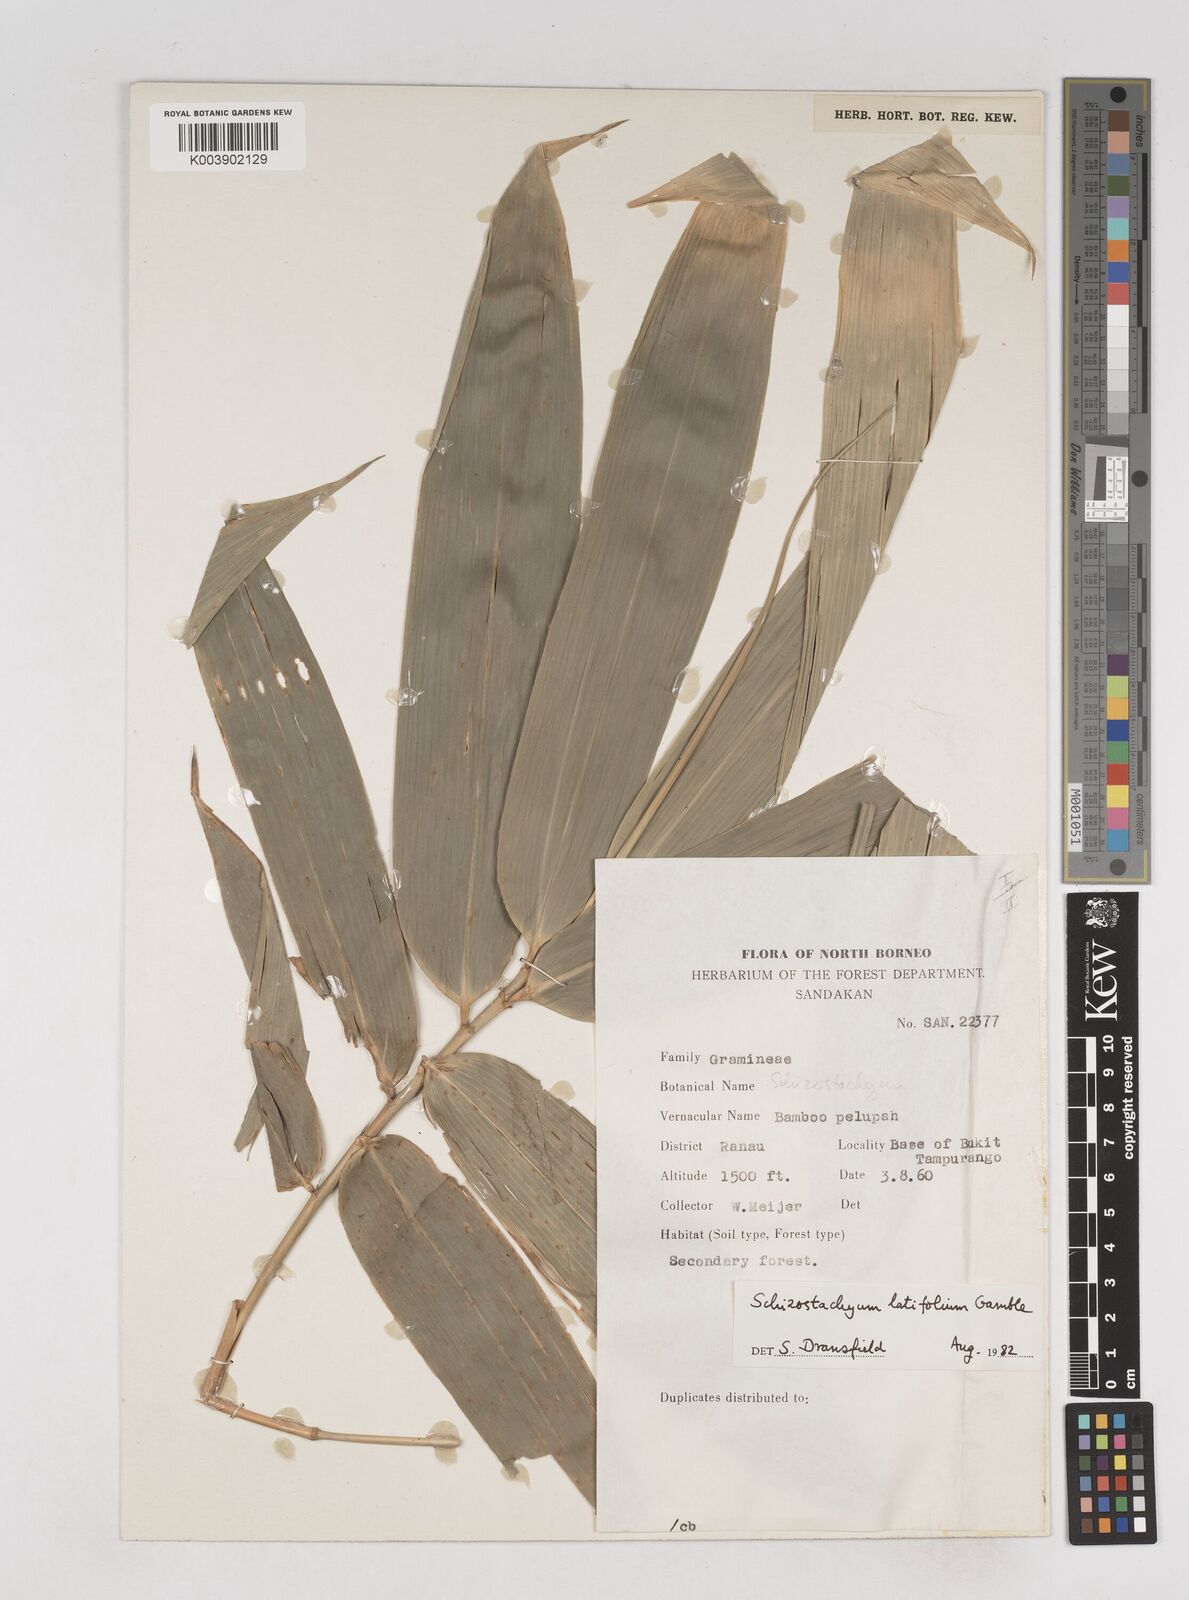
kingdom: Plantae
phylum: Tracheophyta
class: Liliopsida
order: Poales
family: Poaceae
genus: Schizostachyum
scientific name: Schizostachyum
